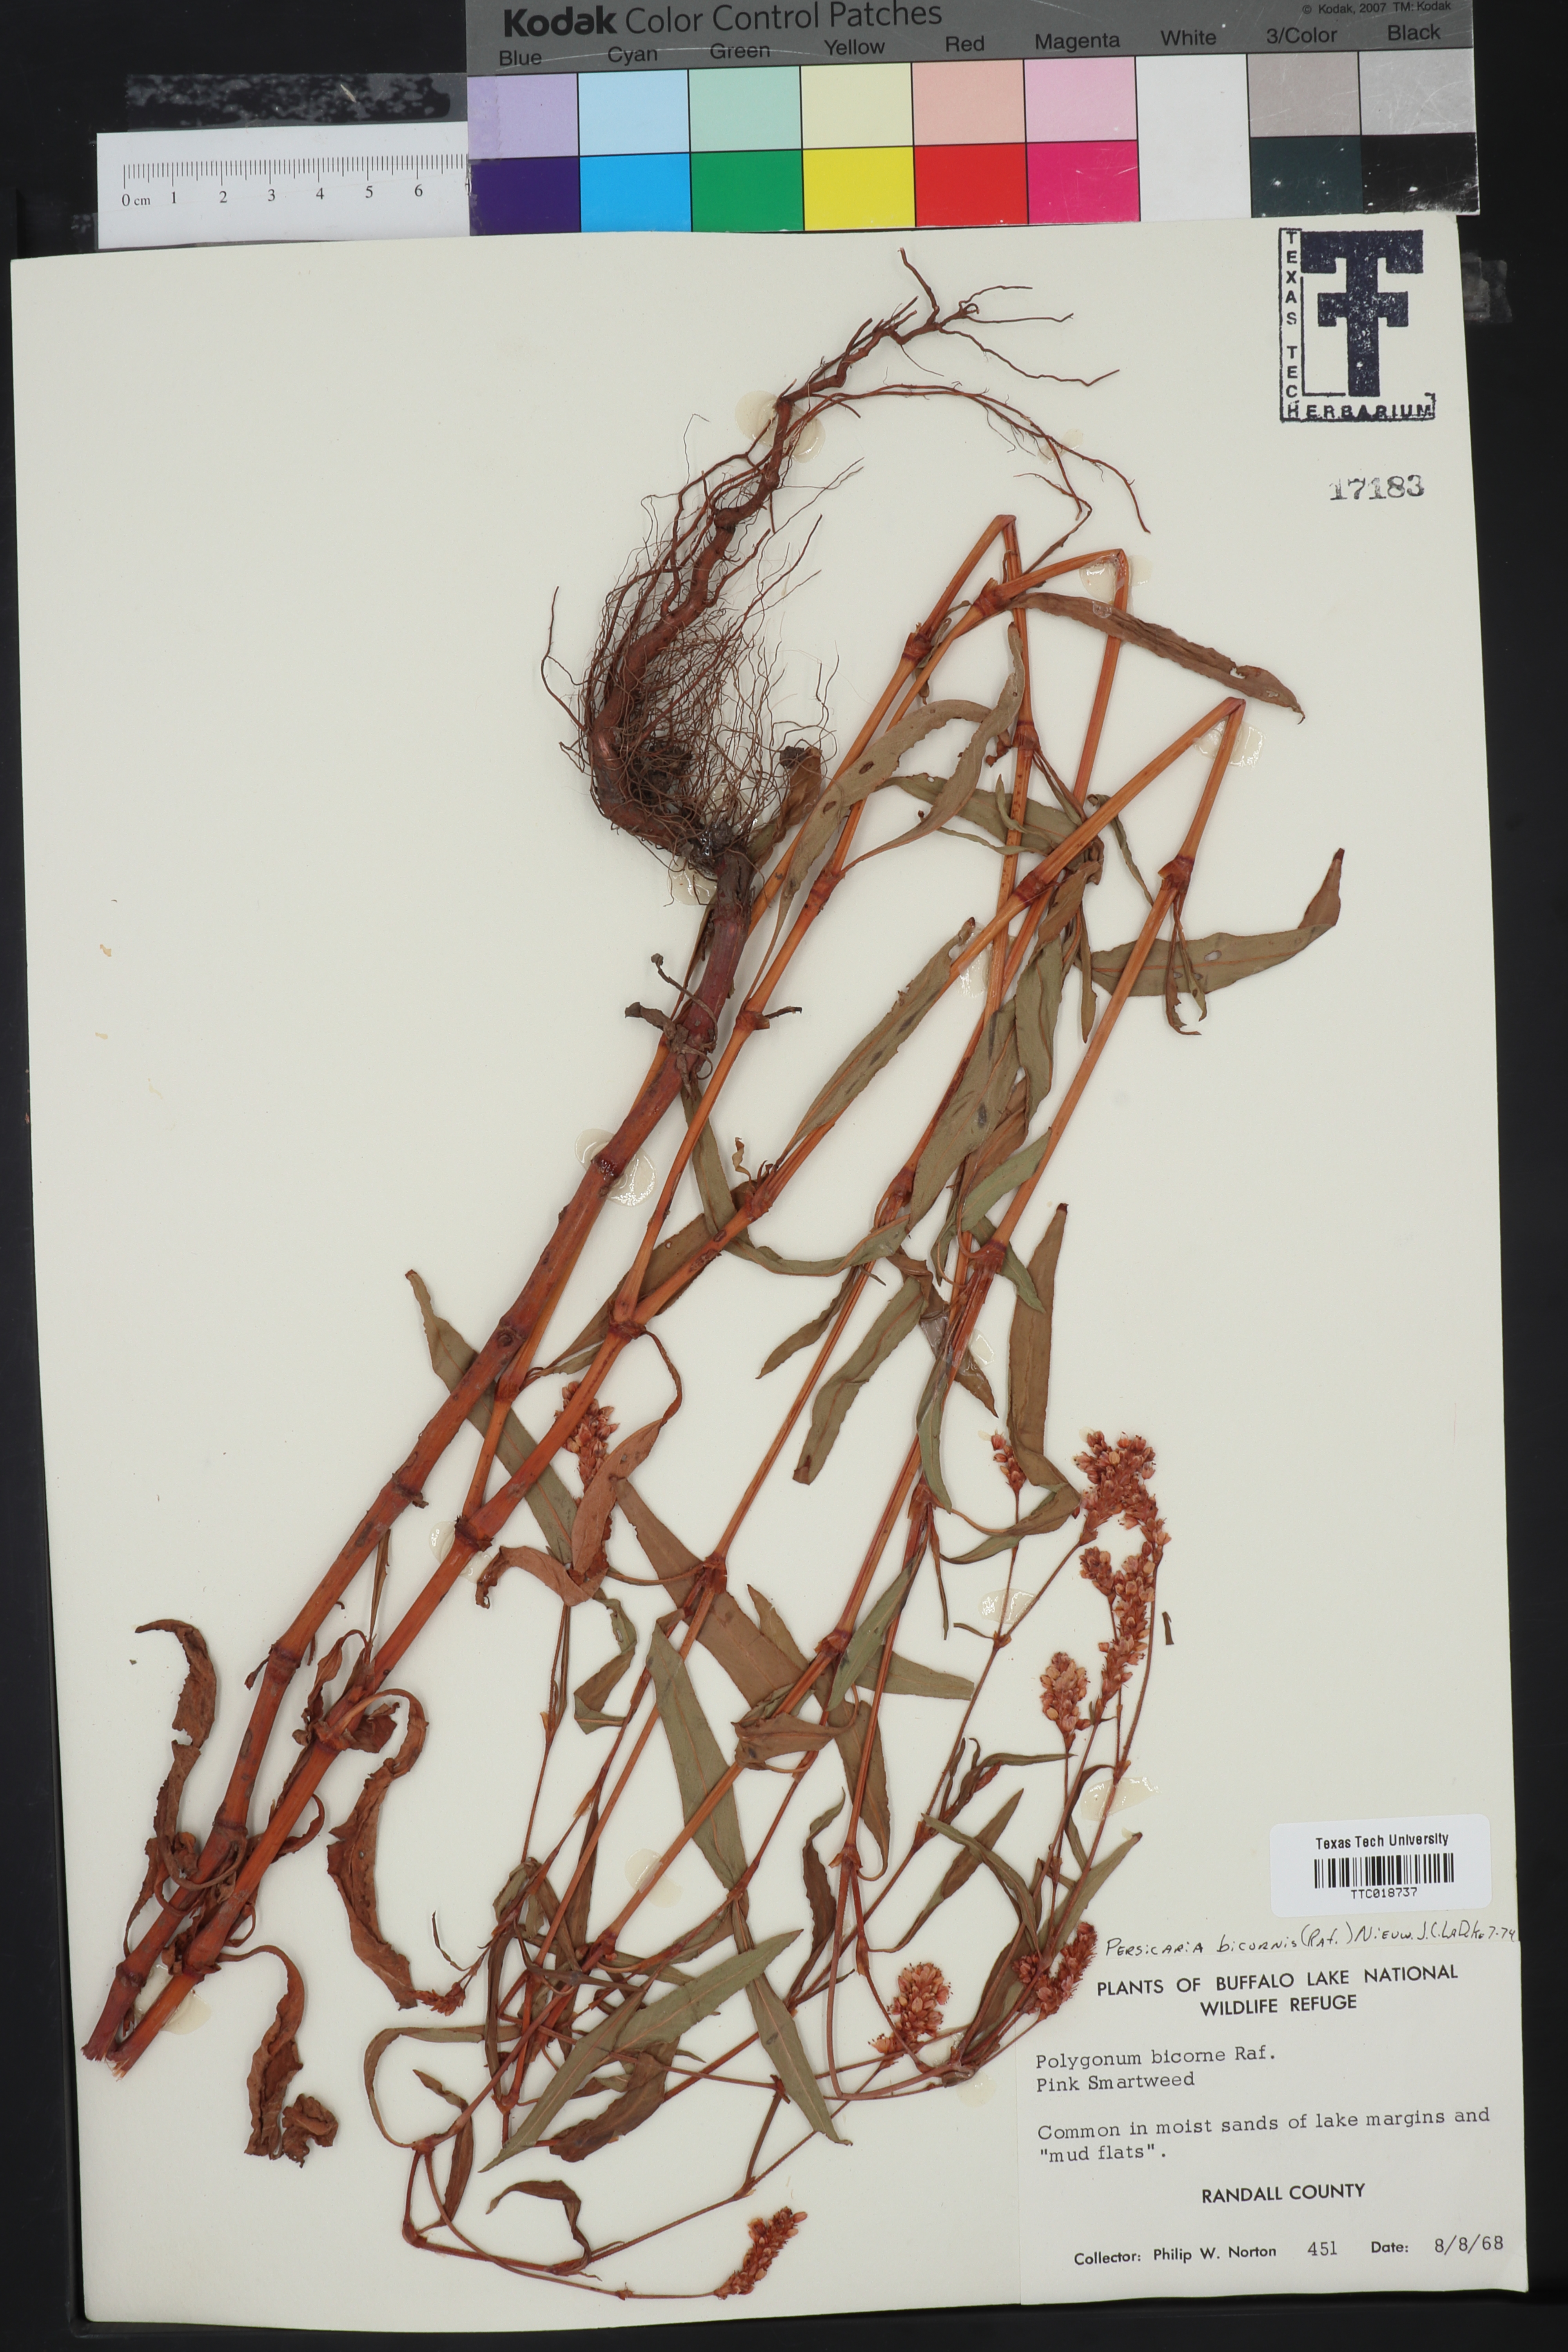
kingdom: Plantae
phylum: Tracheophyta
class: Magnoliopsida
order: Caryophyllales
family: Polygonaceae
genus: Persicaria
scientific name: Persicaria bicornis
